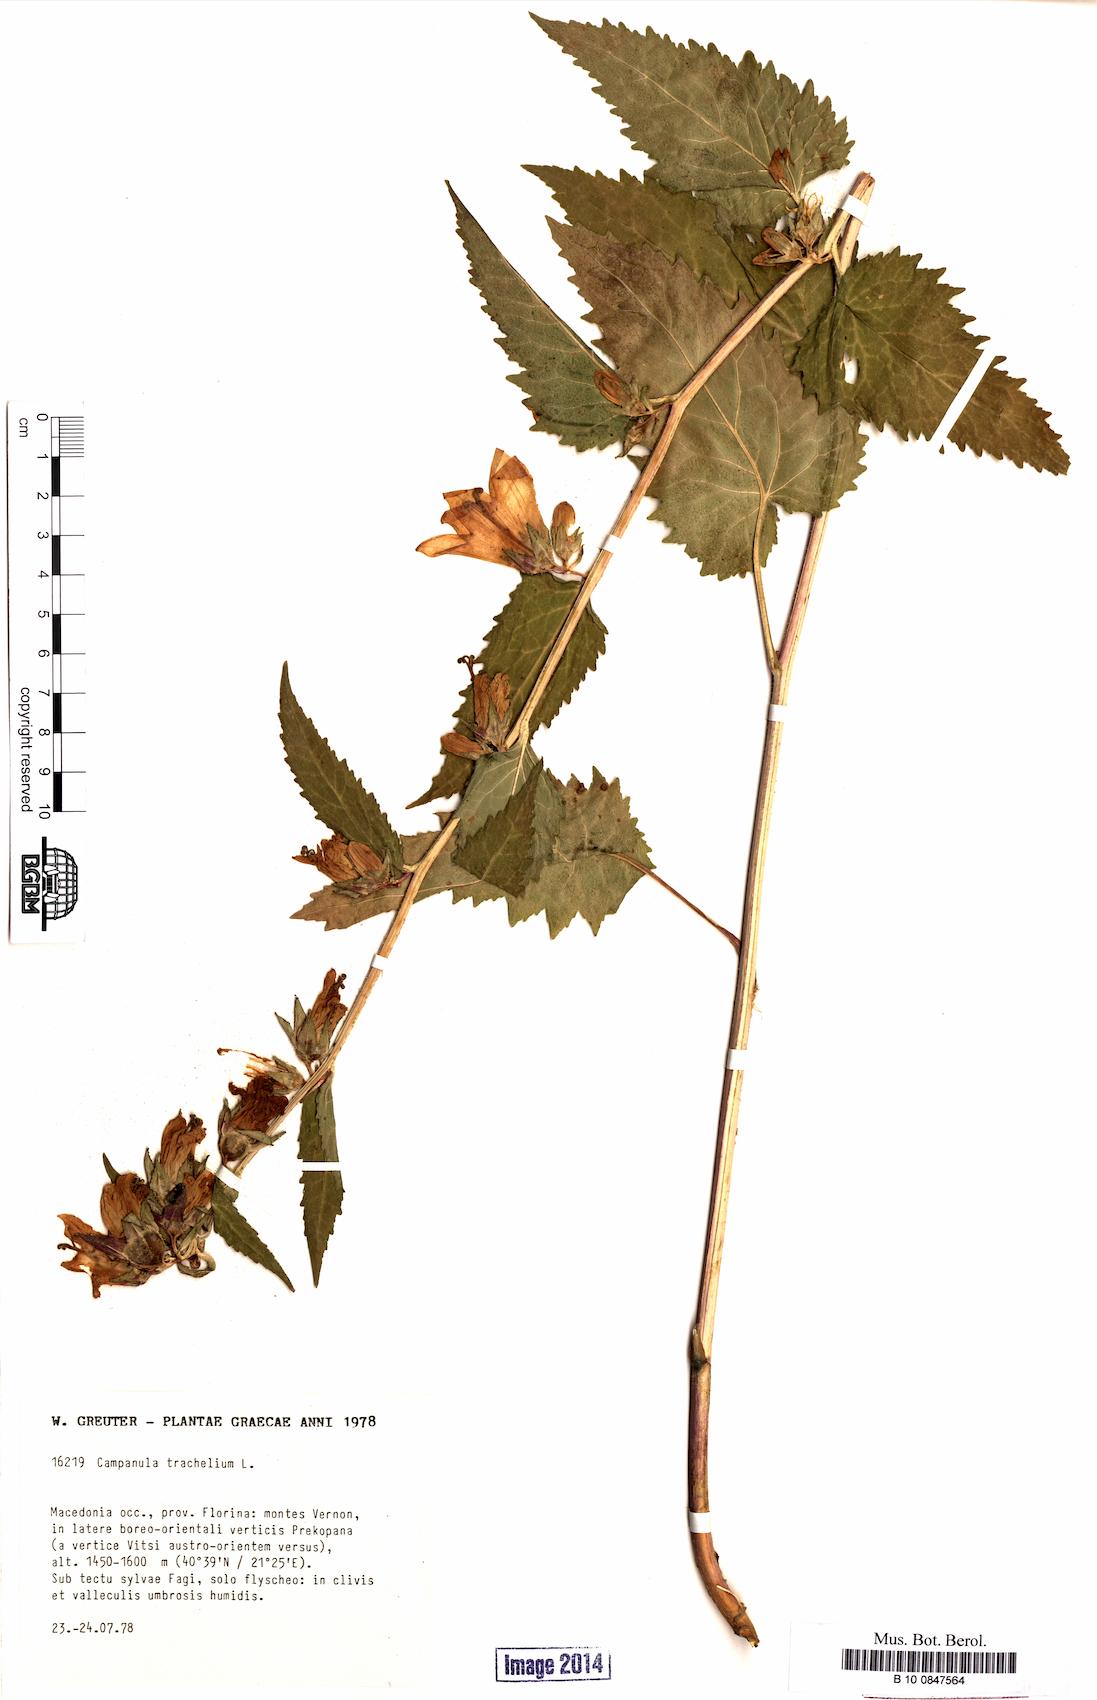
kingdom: Plantae
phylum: Tracheophyta
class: Magnoliopsida
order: Asterales
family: Campanulaceae
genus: Campanula
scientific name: Campanula trachelium
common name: Nettle-leaved bellflower
